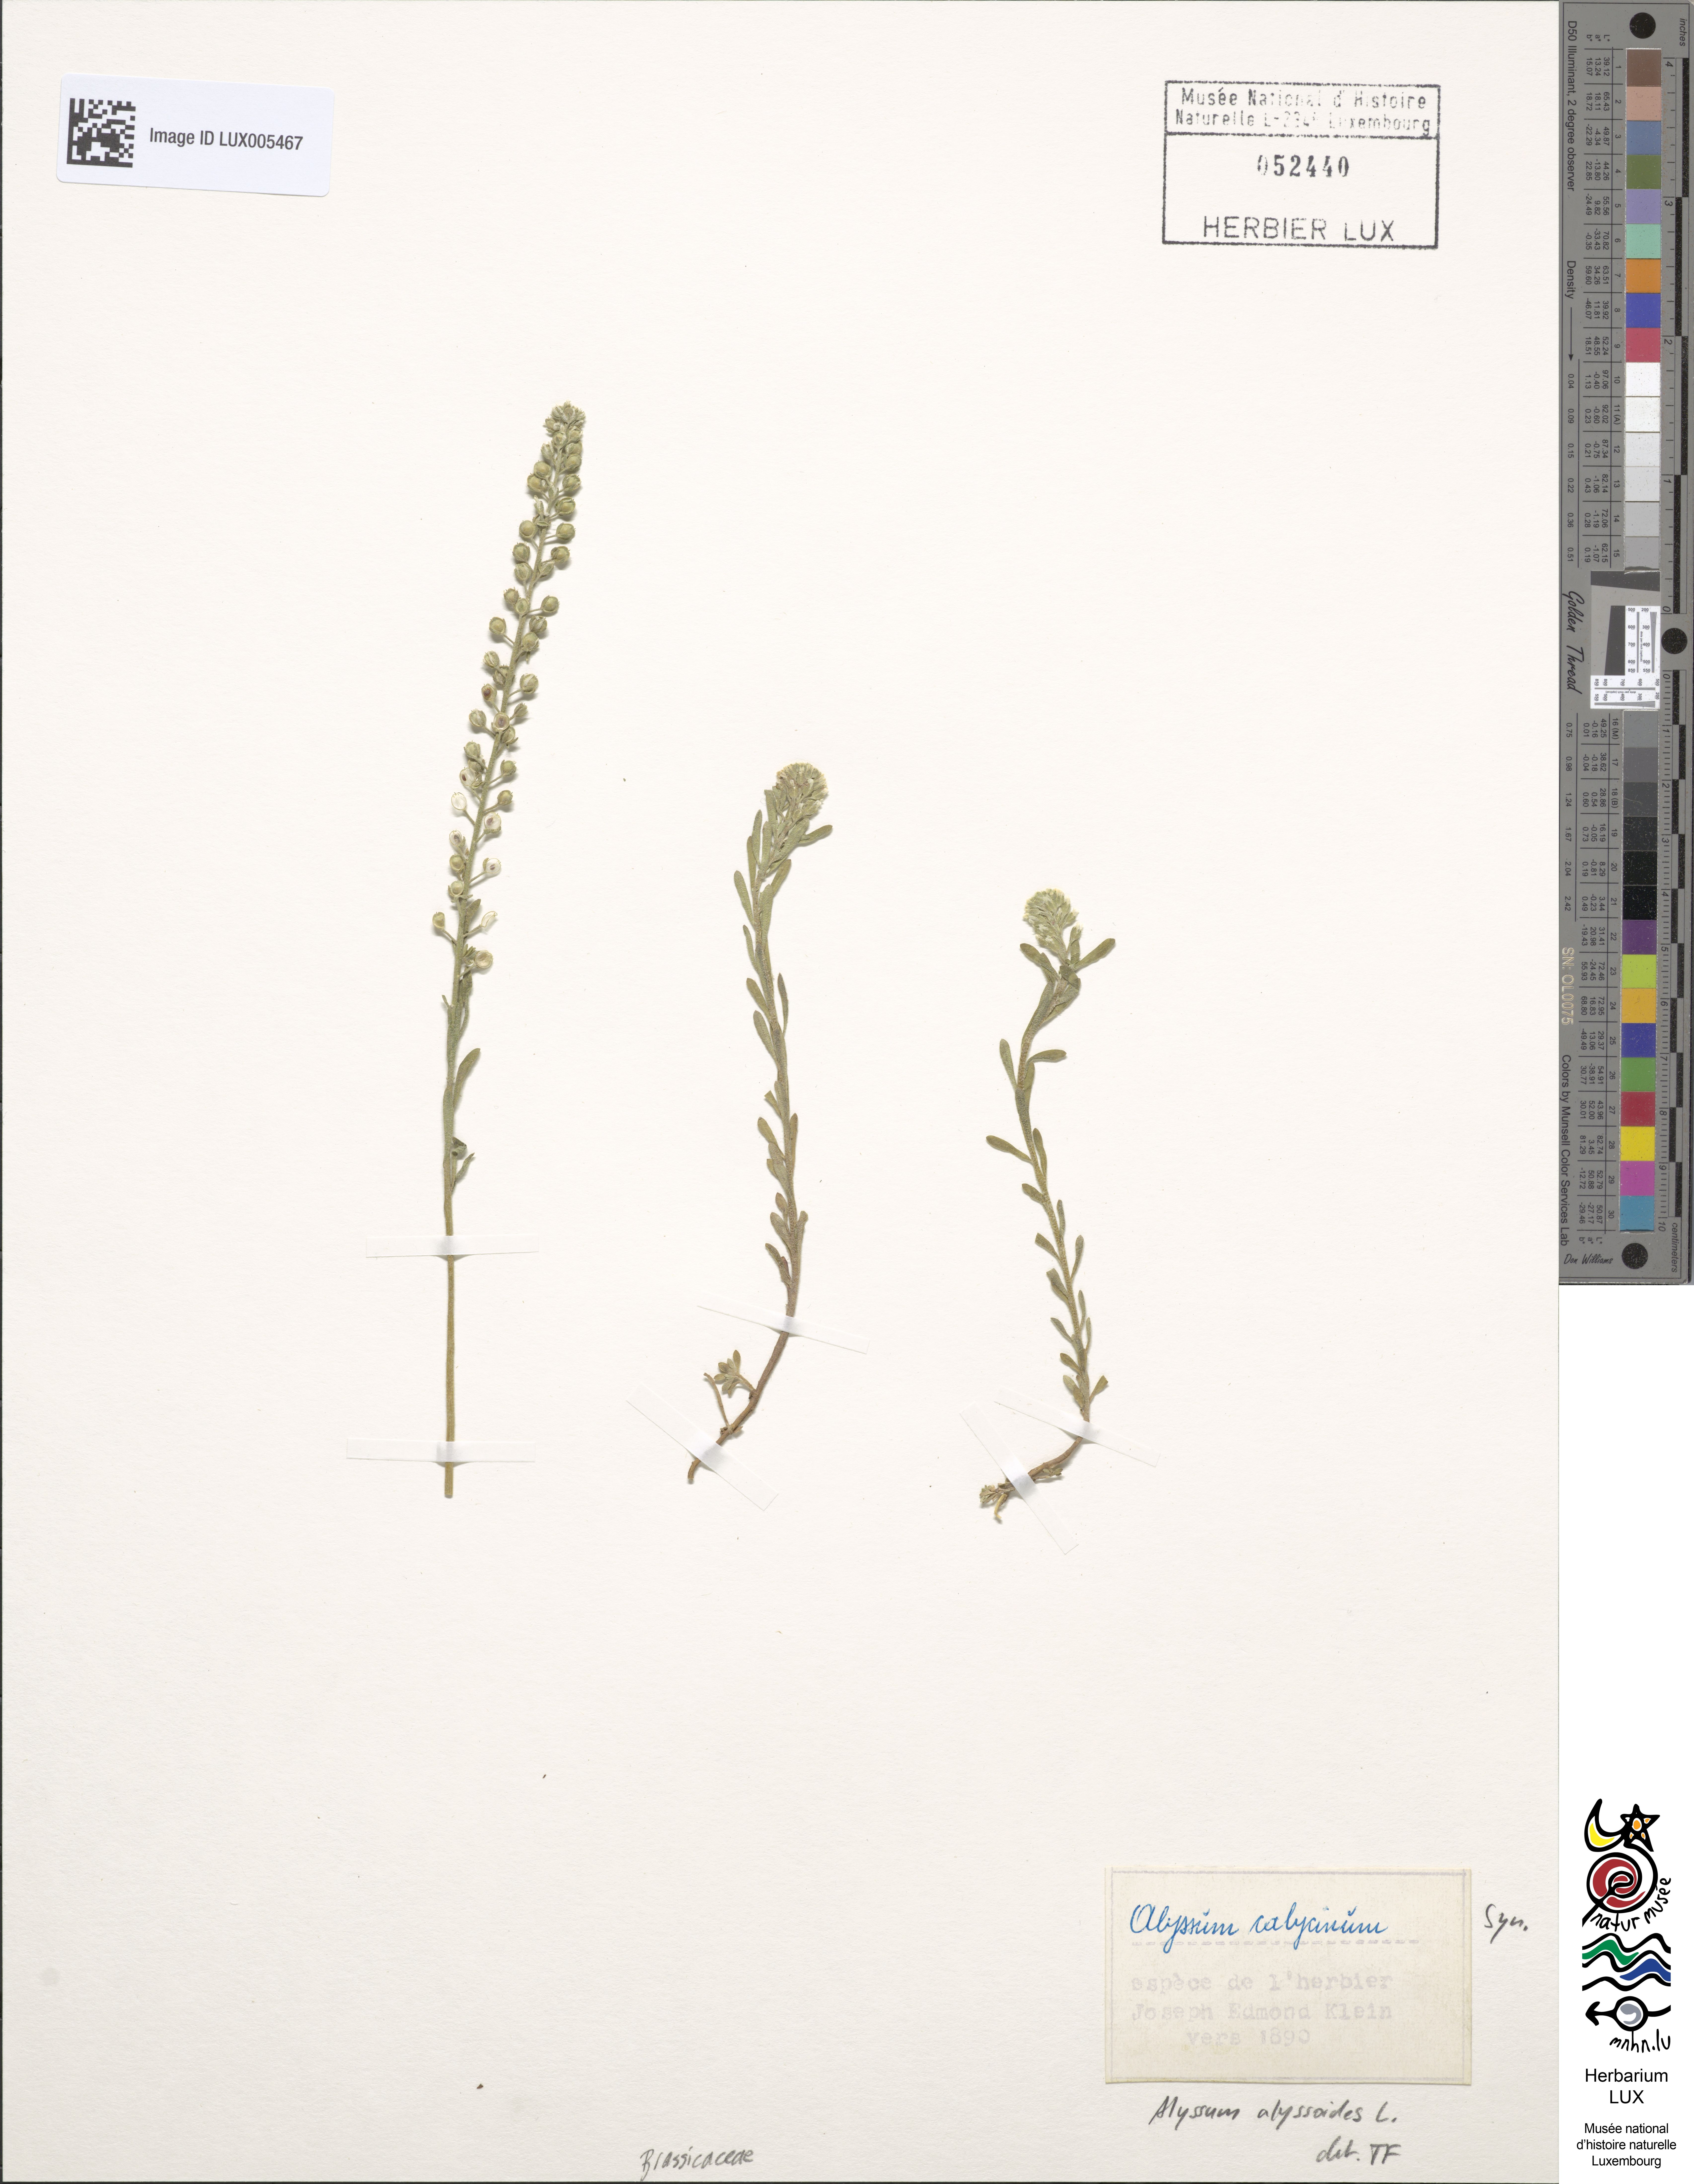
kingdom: Plantae
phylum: Tracheophyta
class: Magnoliopsida
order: Brassicales
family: Brassicaceae
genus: Alyssum
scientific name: Alyssum alyssoides
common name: Small alison
